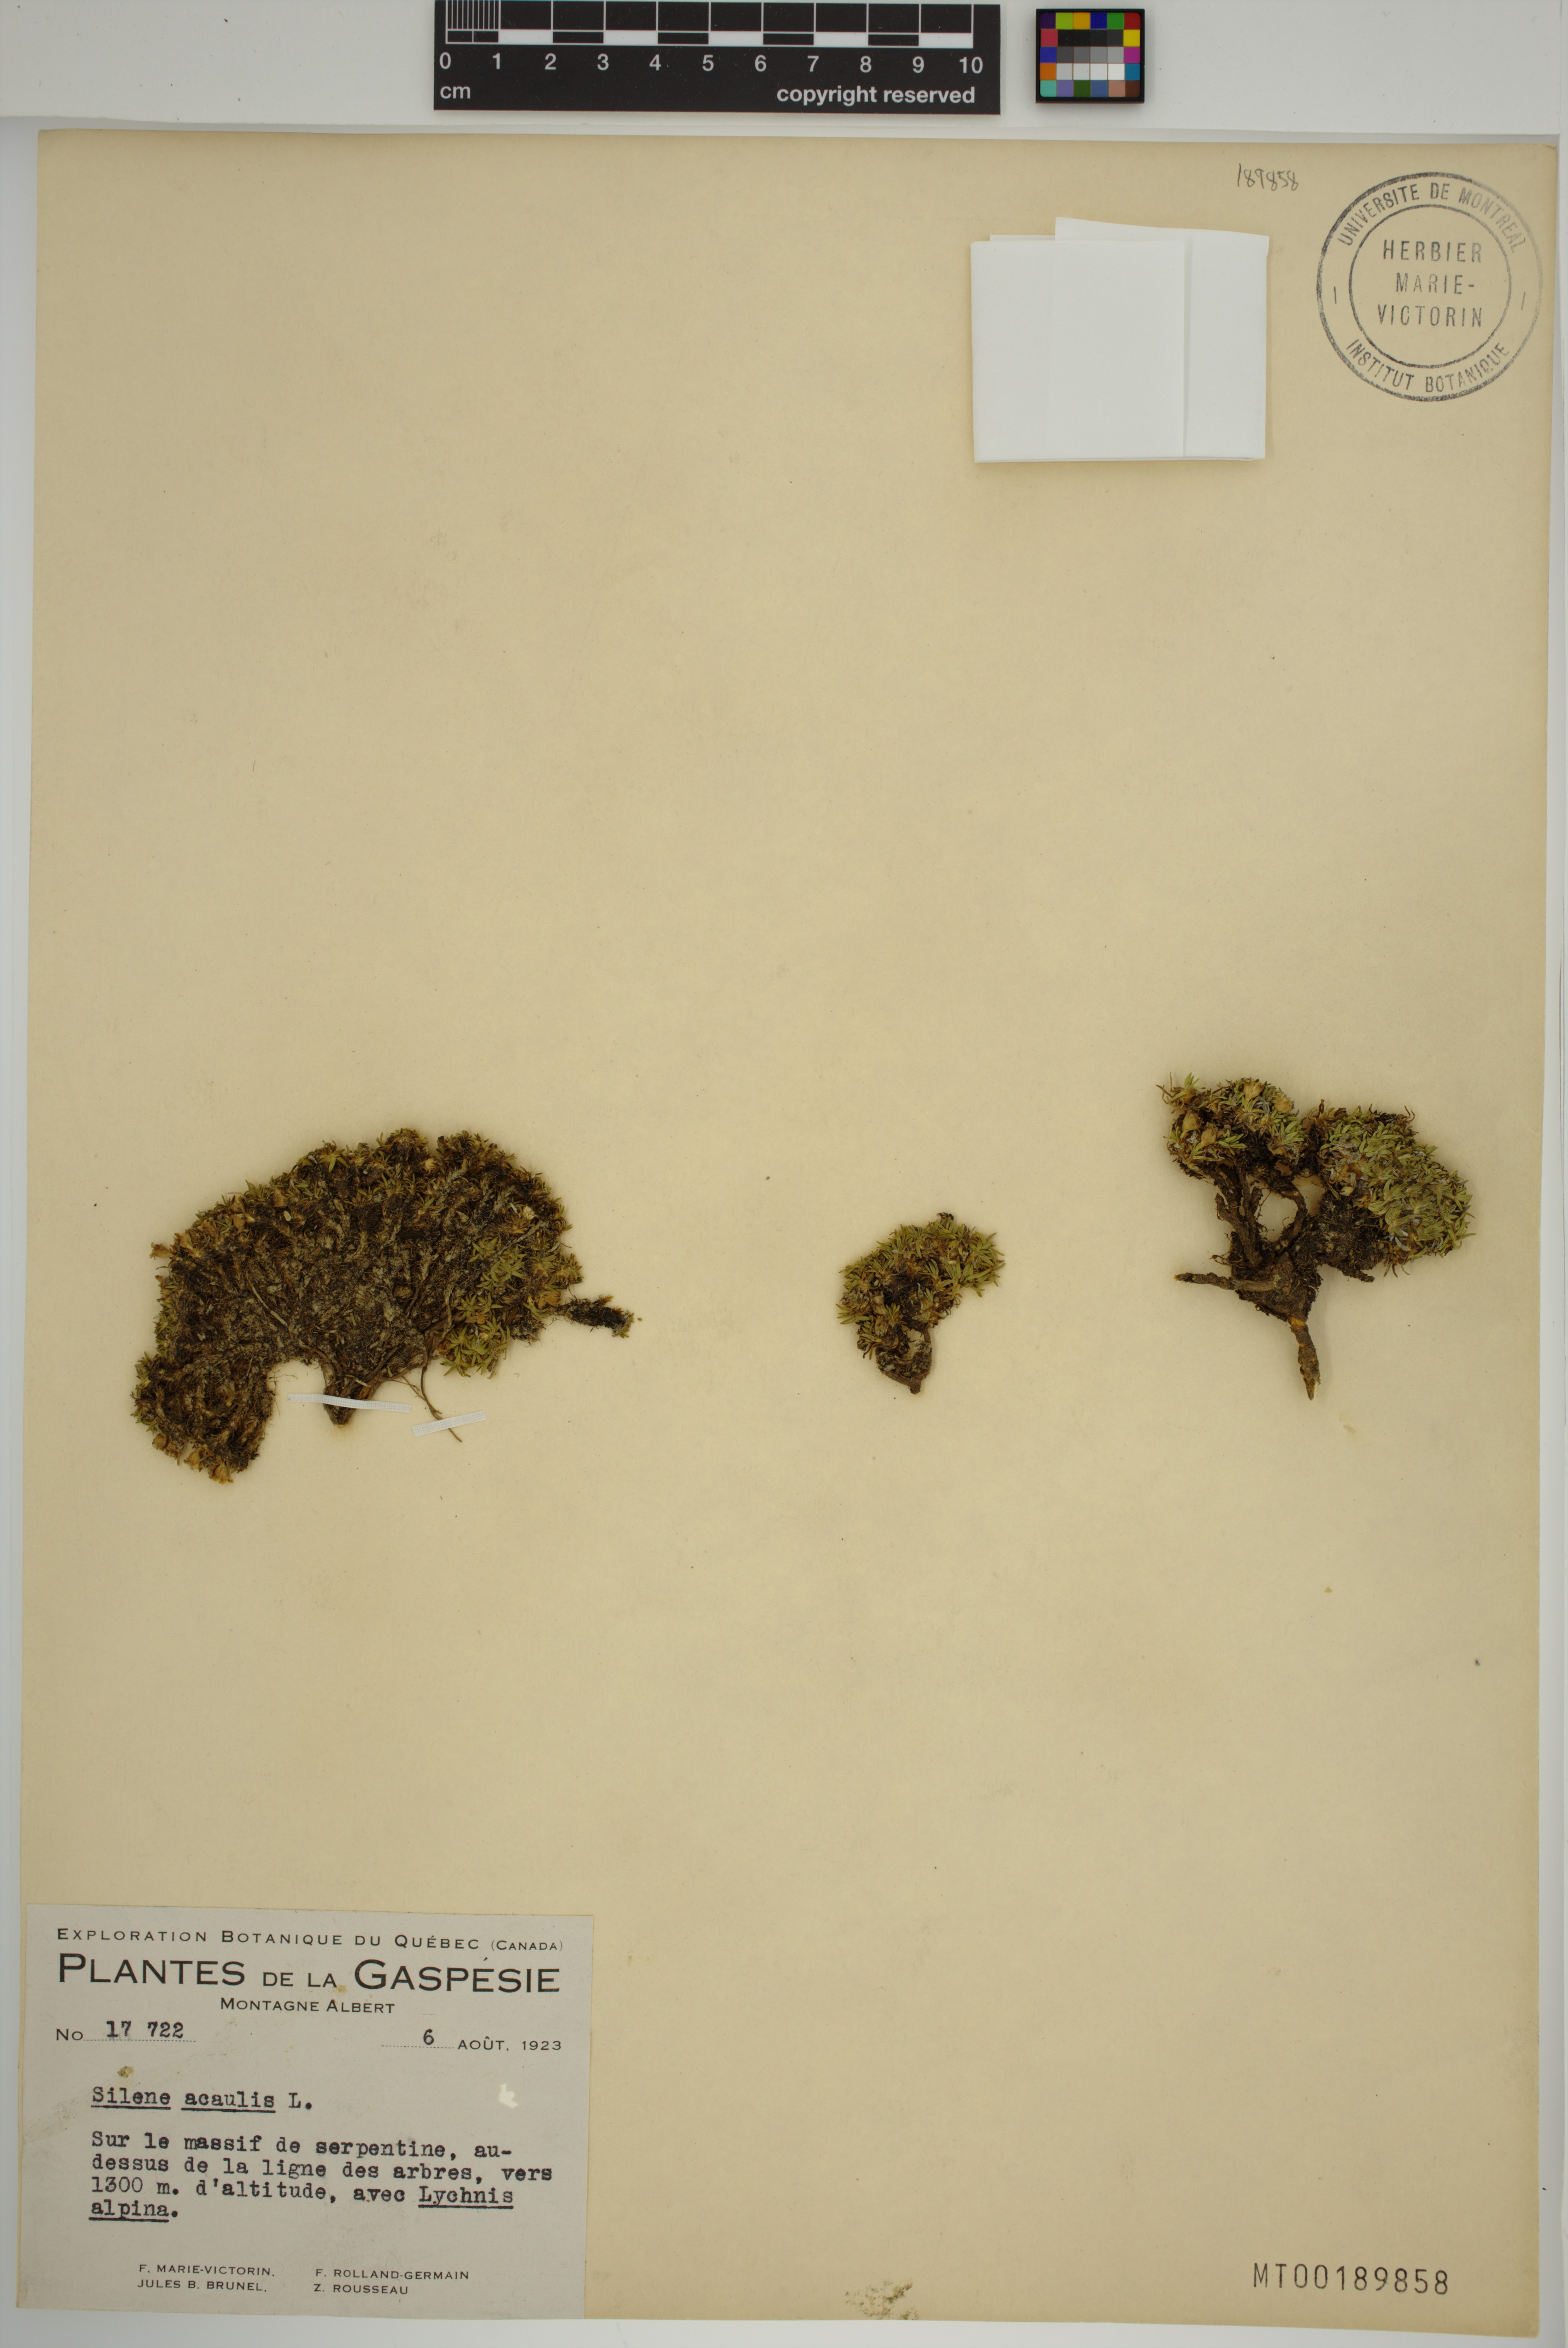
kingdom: Plantae
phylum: Tracheophyta
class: Magnoliopsida
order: Caryophyllales
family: Caryophyllaceae
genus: Silene
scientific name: Silene acaulis
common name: Moss campion
